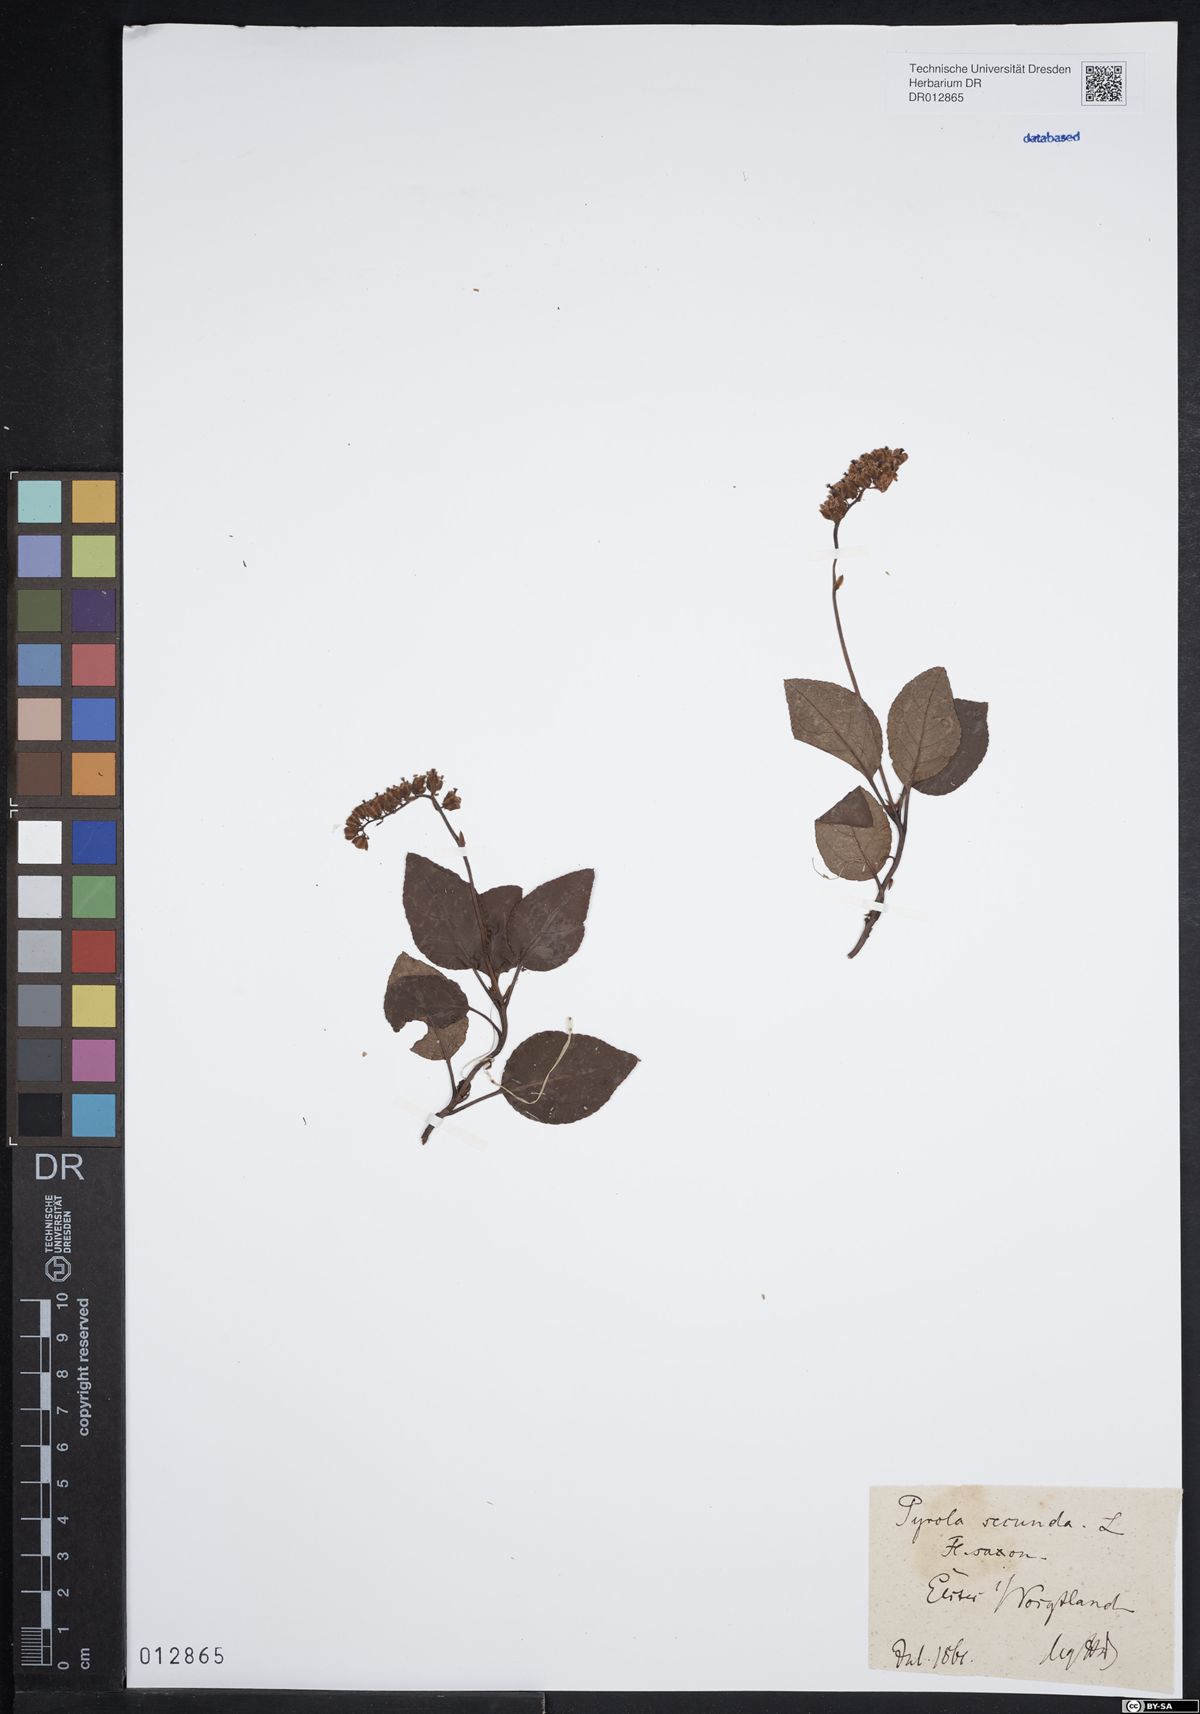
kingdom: Plantae
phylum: Tracheophyta
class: Magnoliopsida
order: Ericales
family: Ericaceae
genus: Orthilia
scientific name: Orthilia secunda
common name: One-sided orthilia
